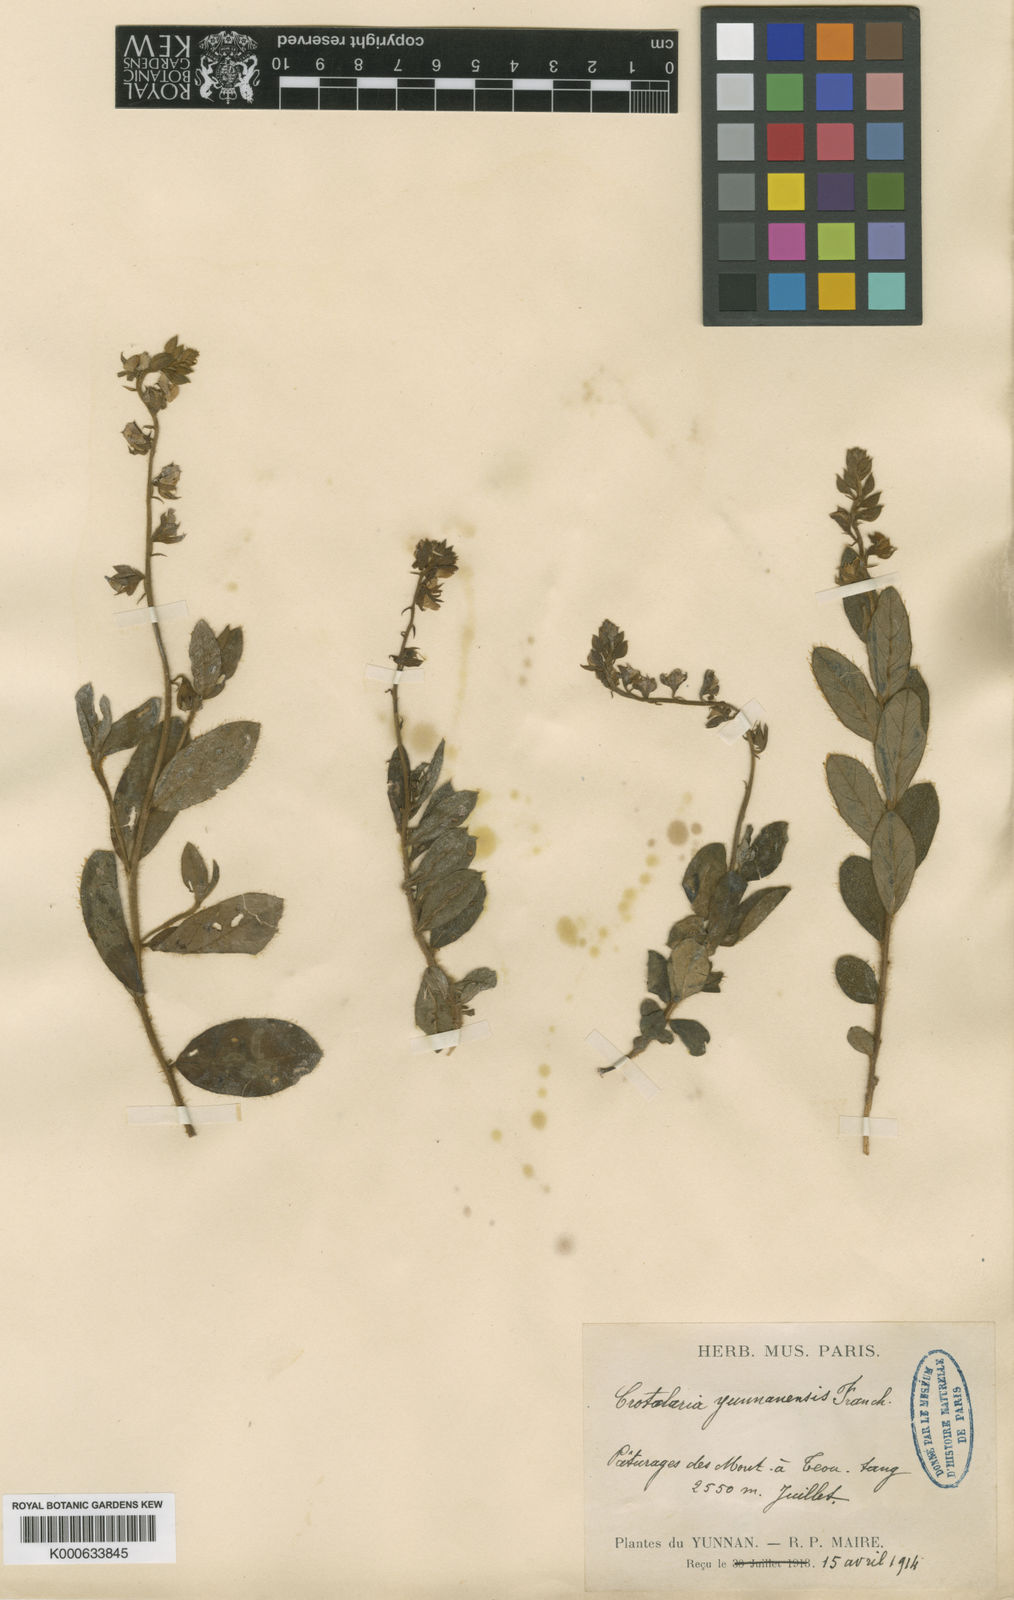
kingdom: Plantae
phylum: Tracheophyta
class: Magnoliopsida
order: Fabales
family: Fabaceae
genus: Crotalaria
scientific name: Crotalaria yunnanensis
